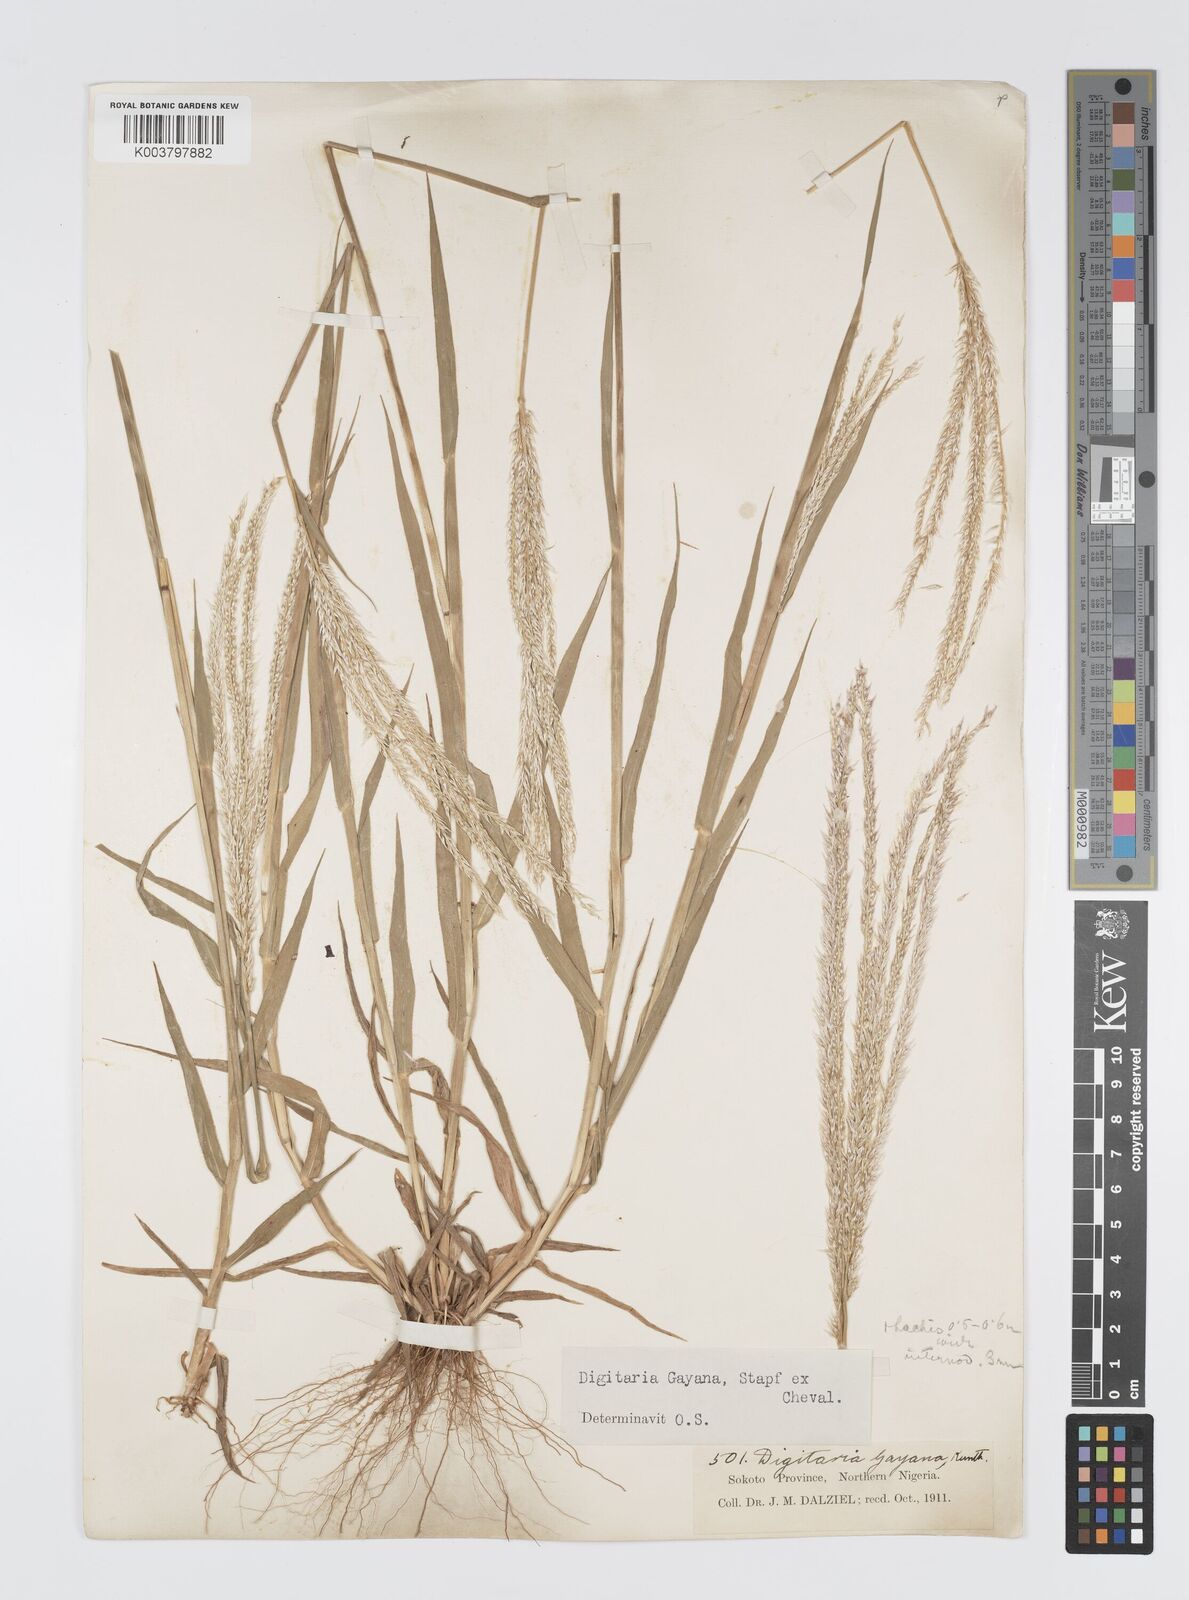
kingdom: Plantae
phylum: Tracheophyta
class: Liliopsida
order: Poales
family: Poaceae
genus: Digitaria
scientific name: Digitaria gayana
